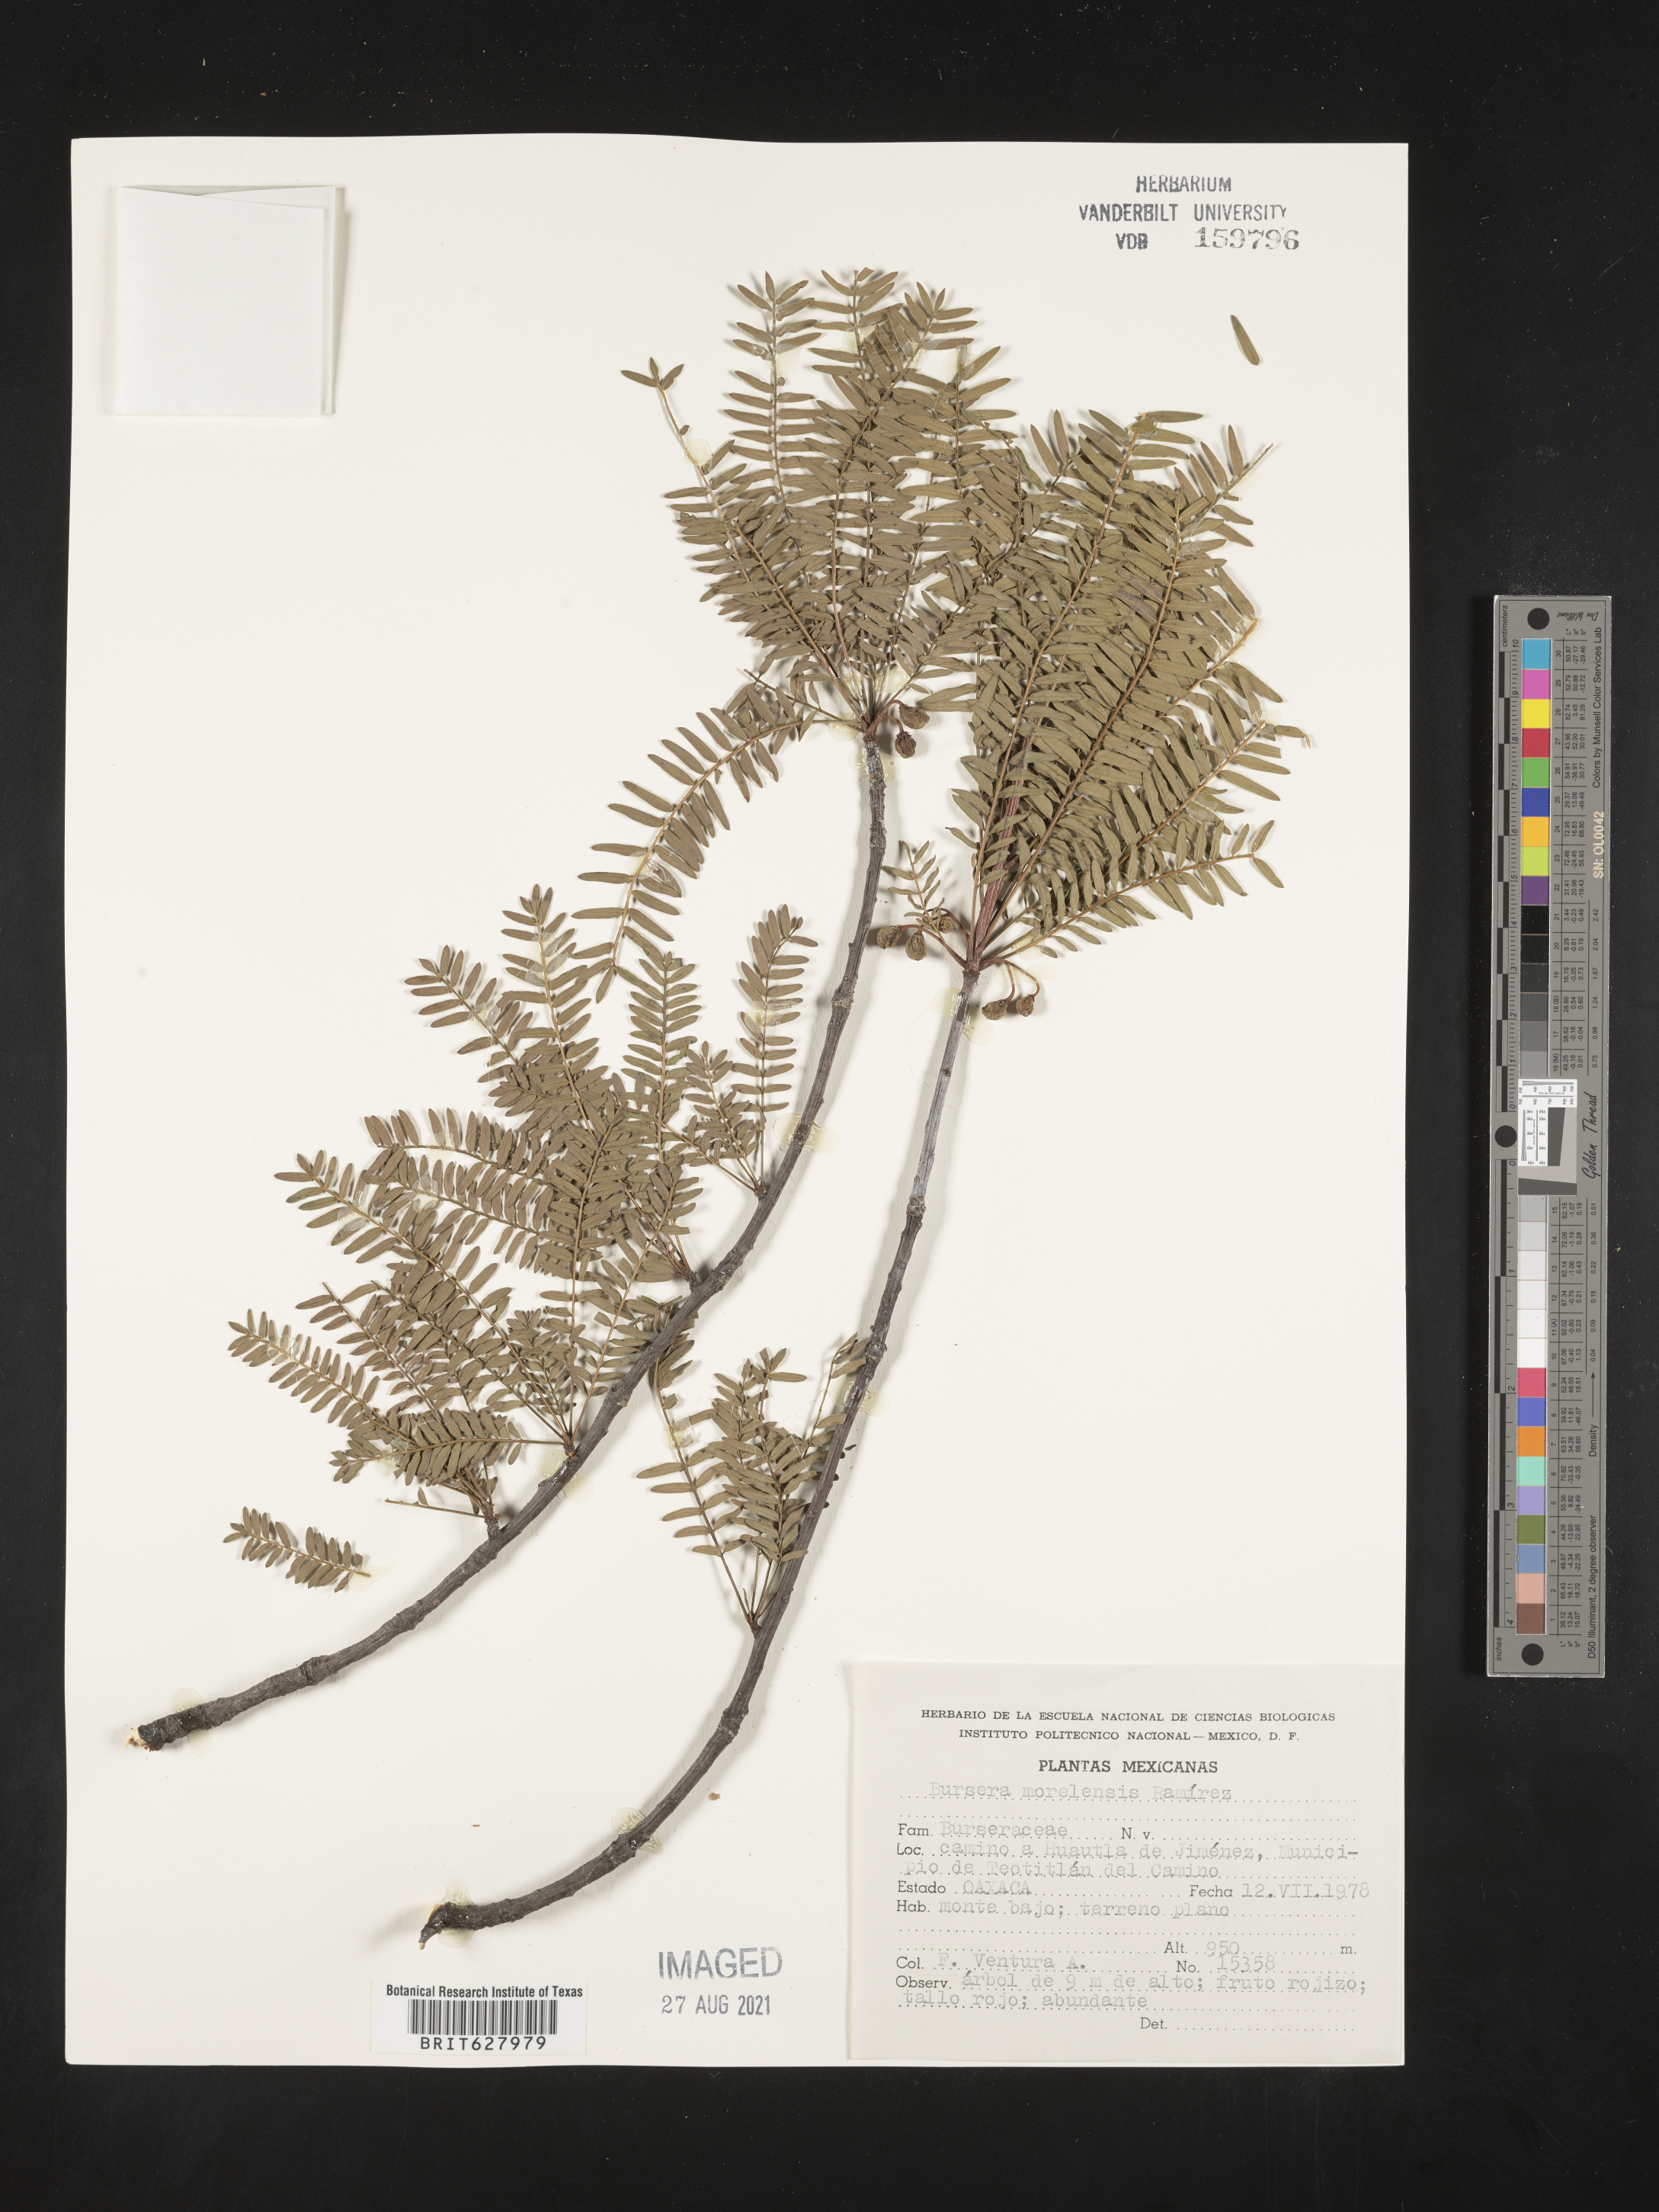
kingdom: Plantae
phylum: Tracheophyta
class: Magnoliopsida
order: Sapindales
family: Burseraceae
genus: Bursera
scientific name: Bursera
